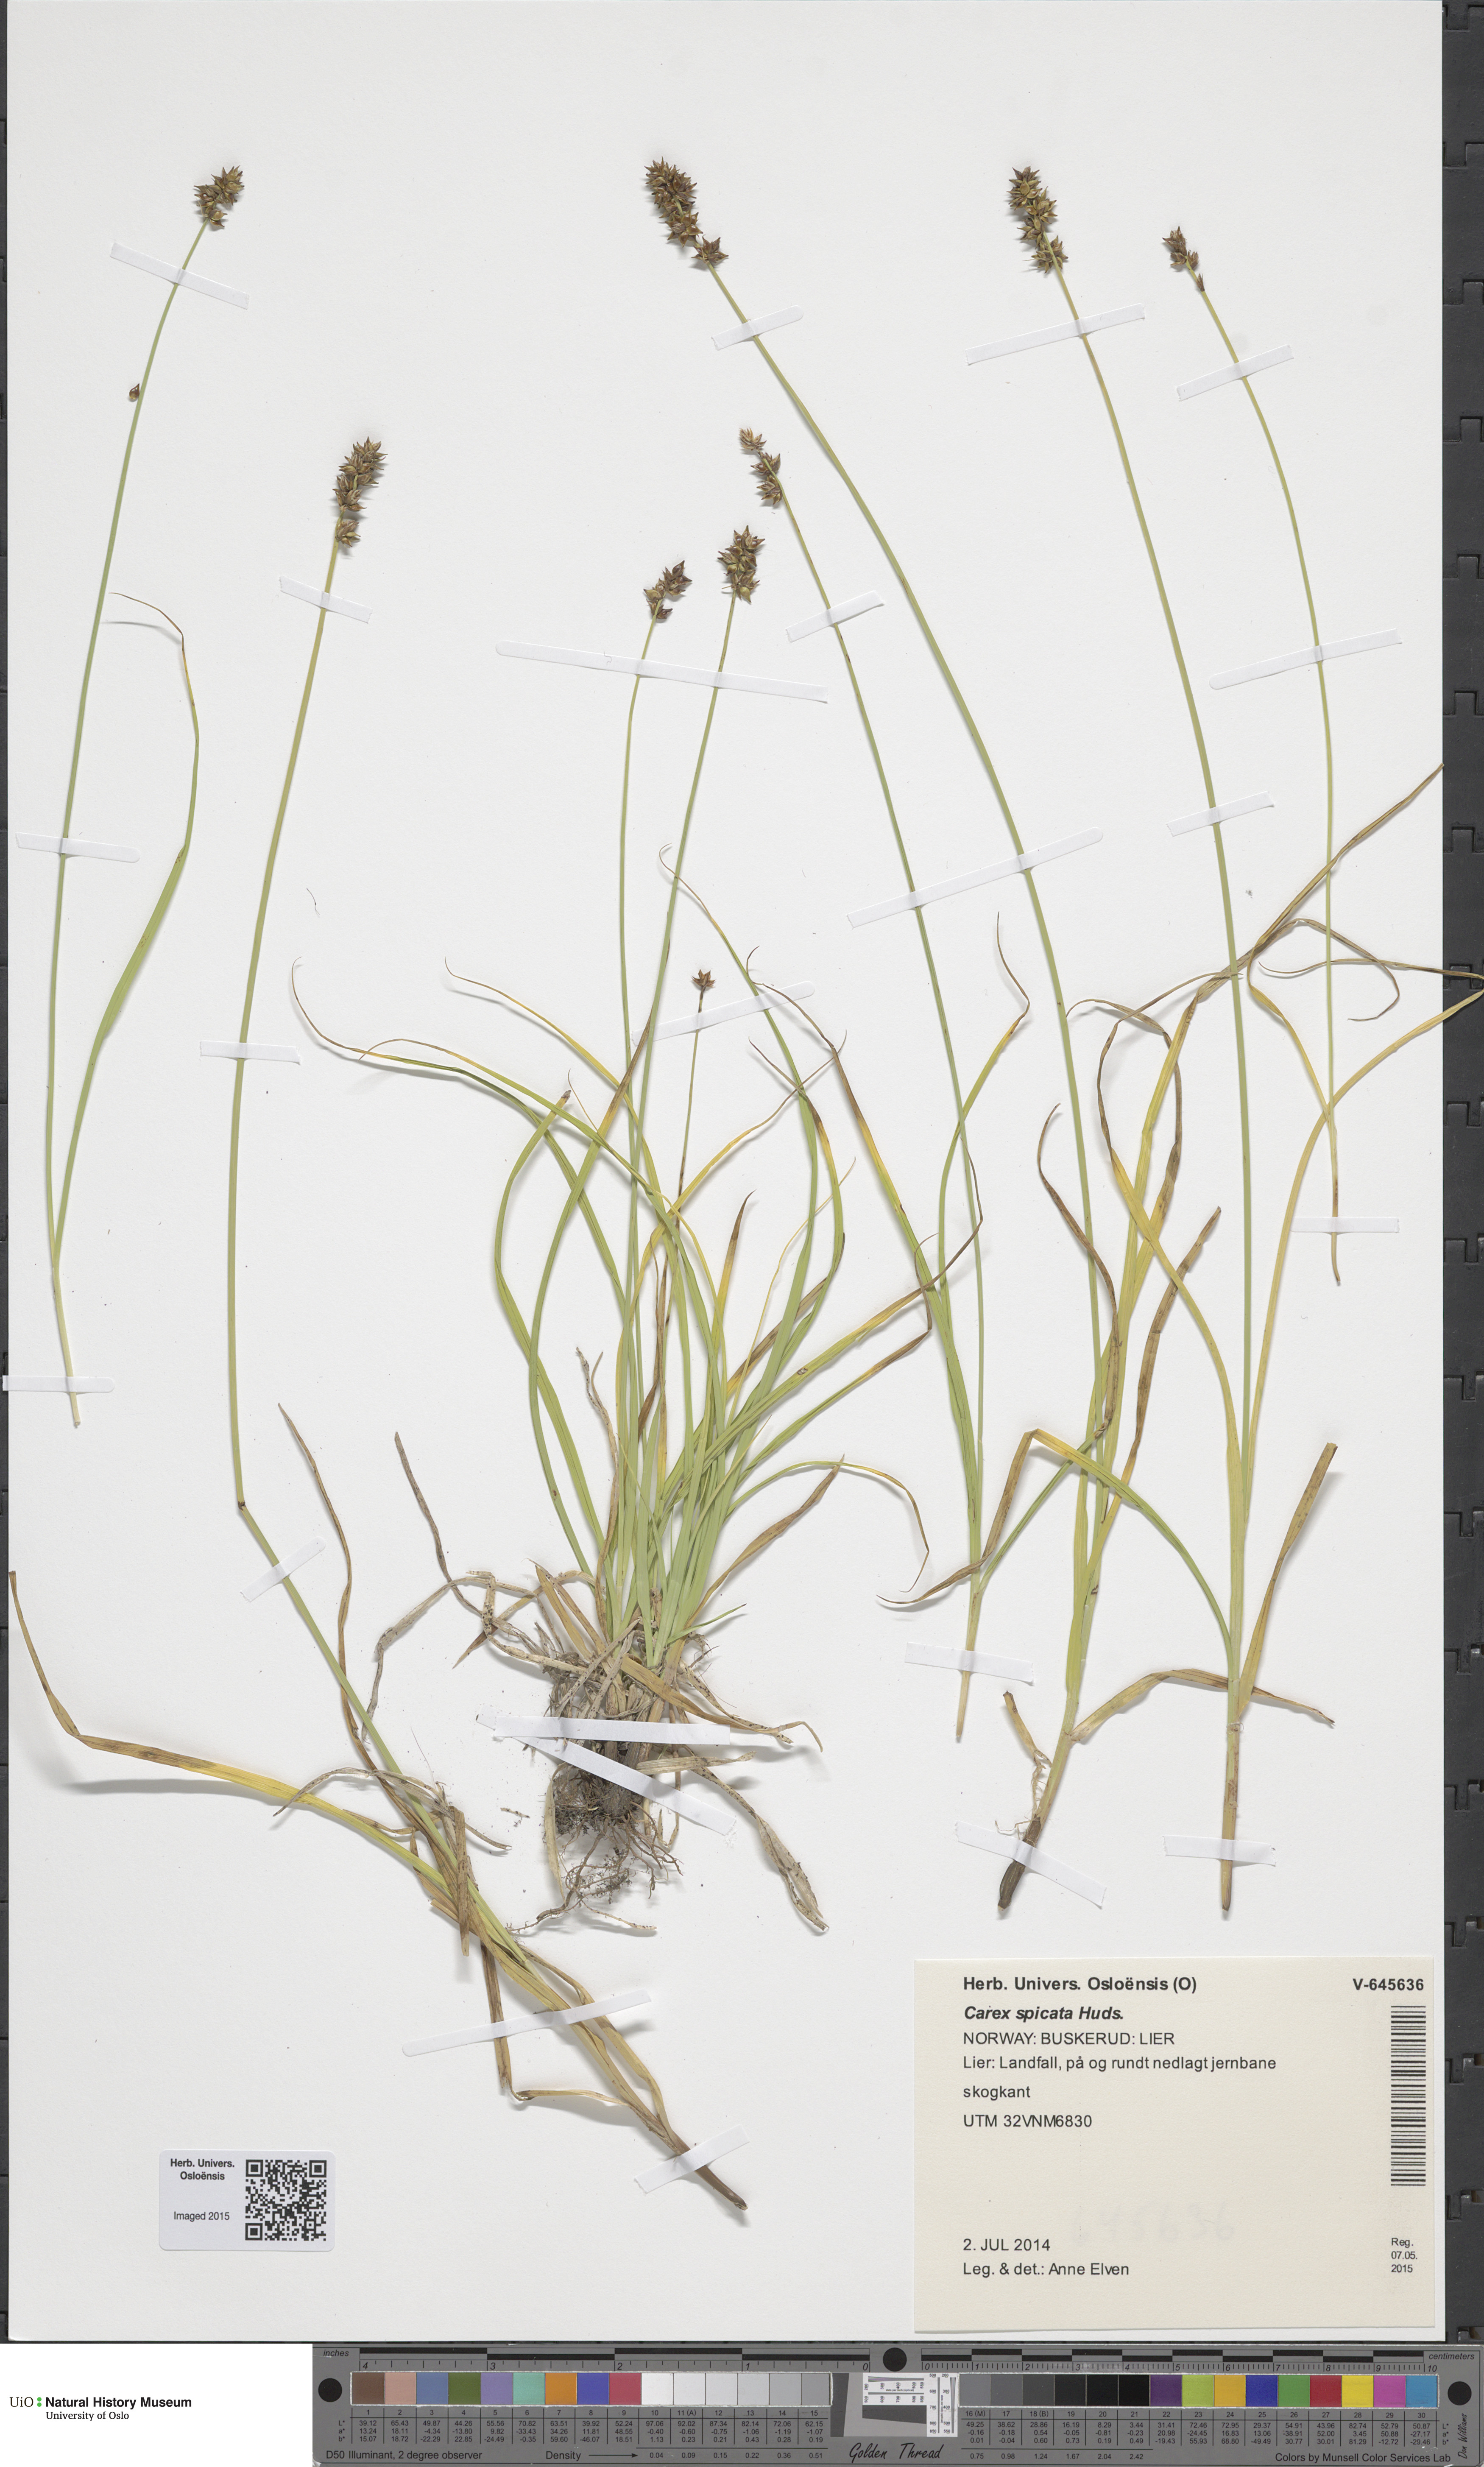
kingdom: Plantae
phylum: Tracheophyta
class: Liliopsida
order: Poales
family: Cyperaceae
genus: Carex
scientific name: Carex muricata
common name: Rough sedge
